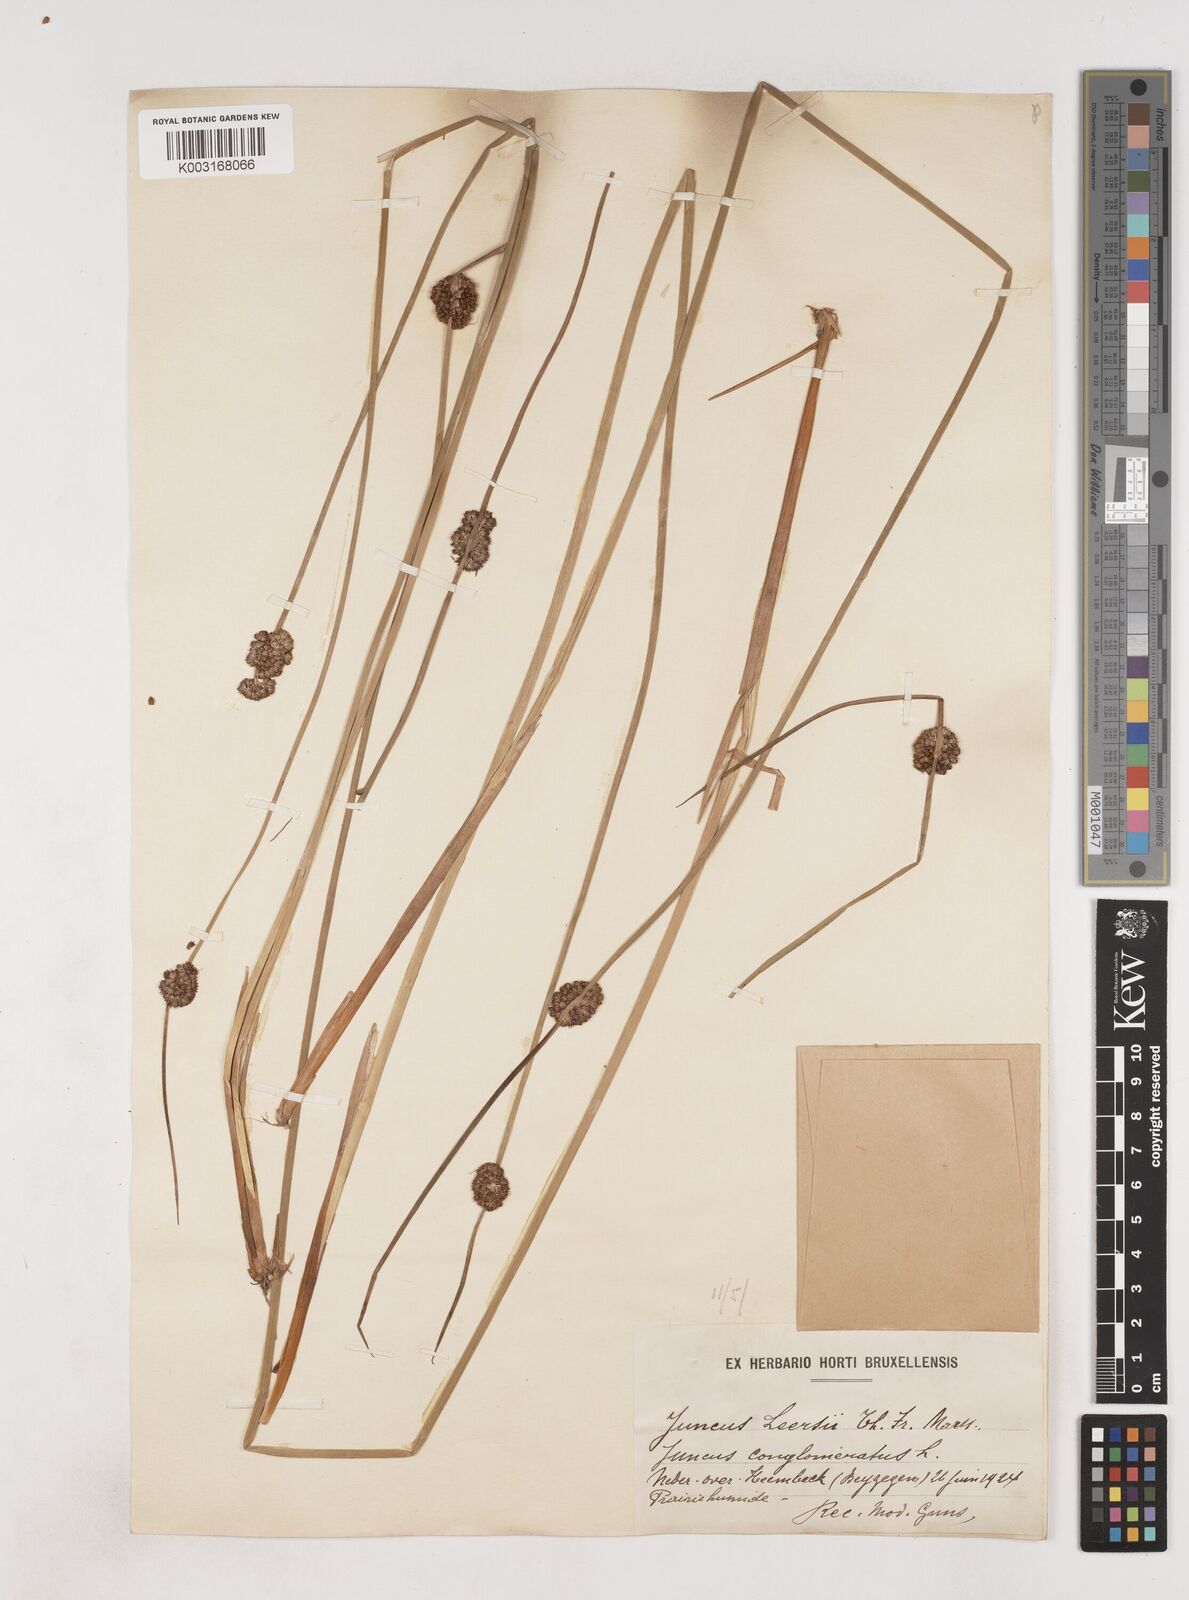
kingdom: Plantae
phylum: Tracheophyta
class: Liliopsida
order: Poales
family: Juncaceae
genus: Juncus
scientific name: Juncus conglomeratus
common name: Compact rush
